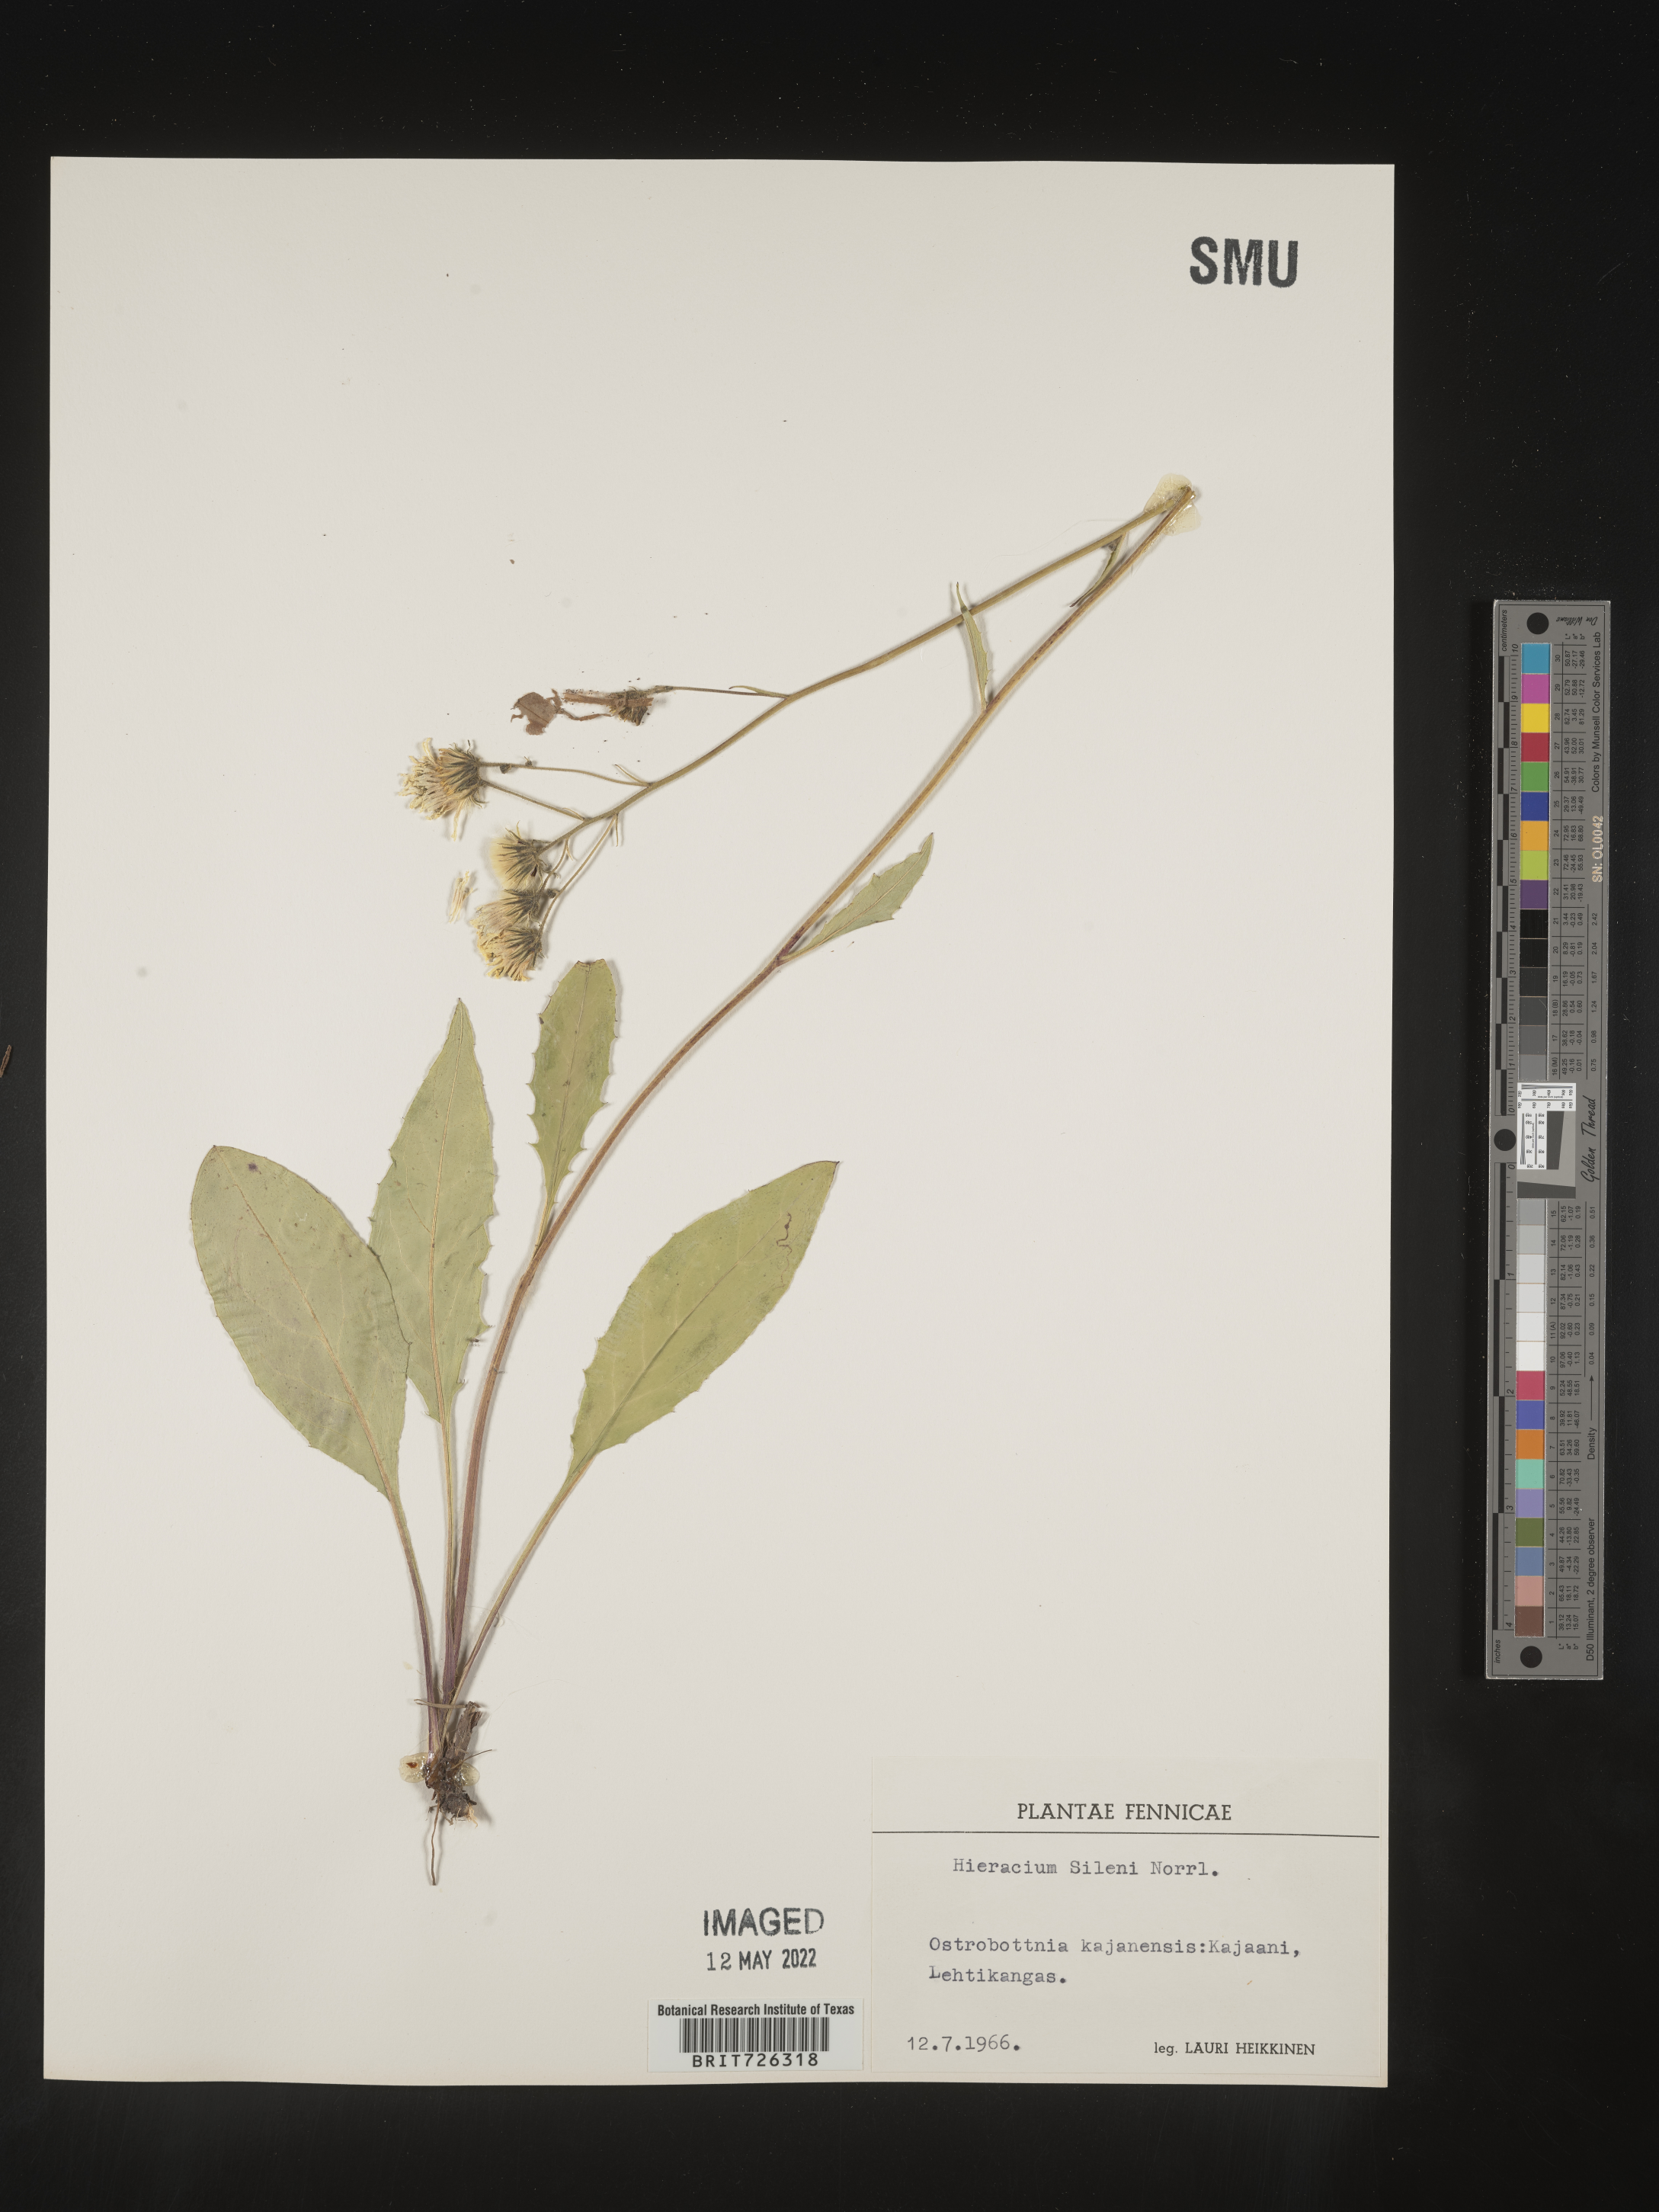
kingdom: Plantae
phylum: Tracheophyta
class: Magnoliopsida
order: Asterales
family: Asteraceae
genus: Hieracium
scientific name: Hieracium
